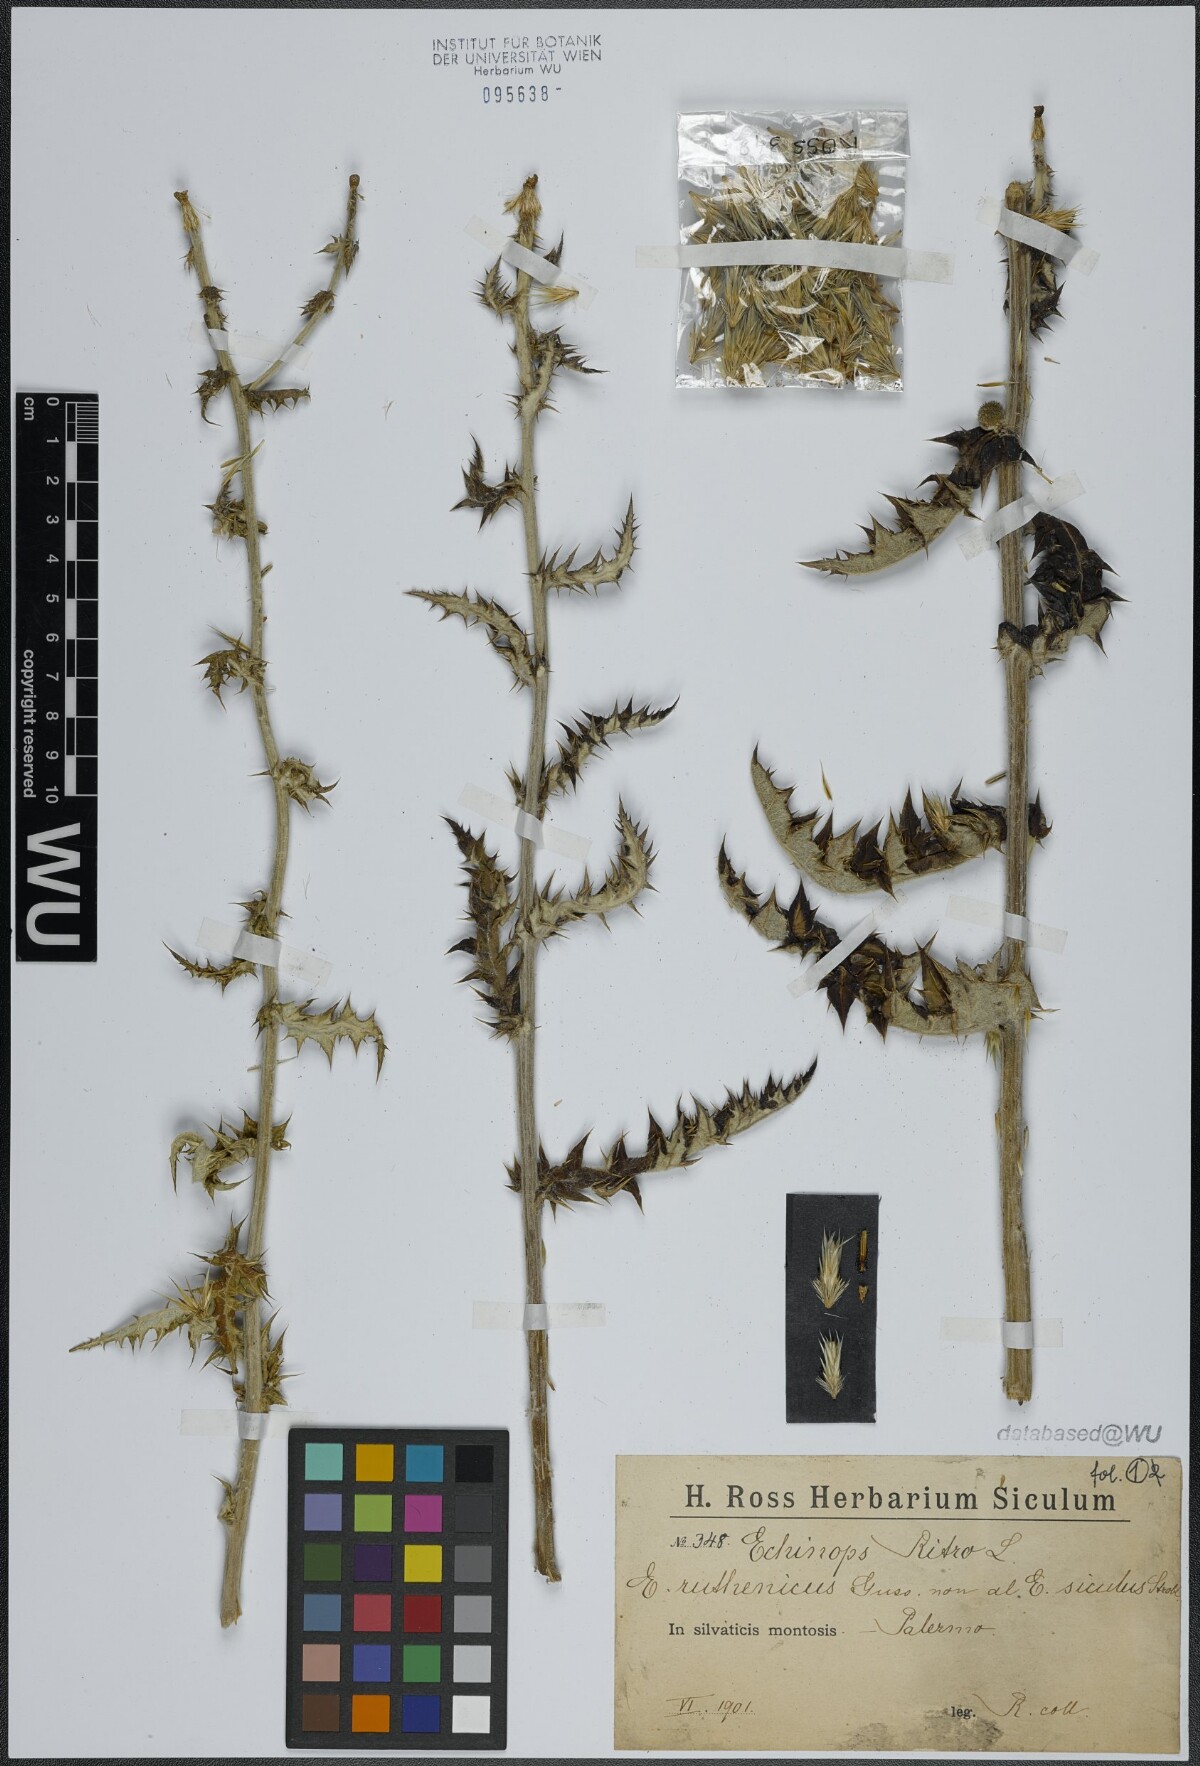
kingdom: Plantae
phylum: Tracheophyta
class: Magnoliopsida
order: Asterales
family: Asteraceae
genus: Echinops
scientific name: Echinops ritro
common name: Globe thistle
